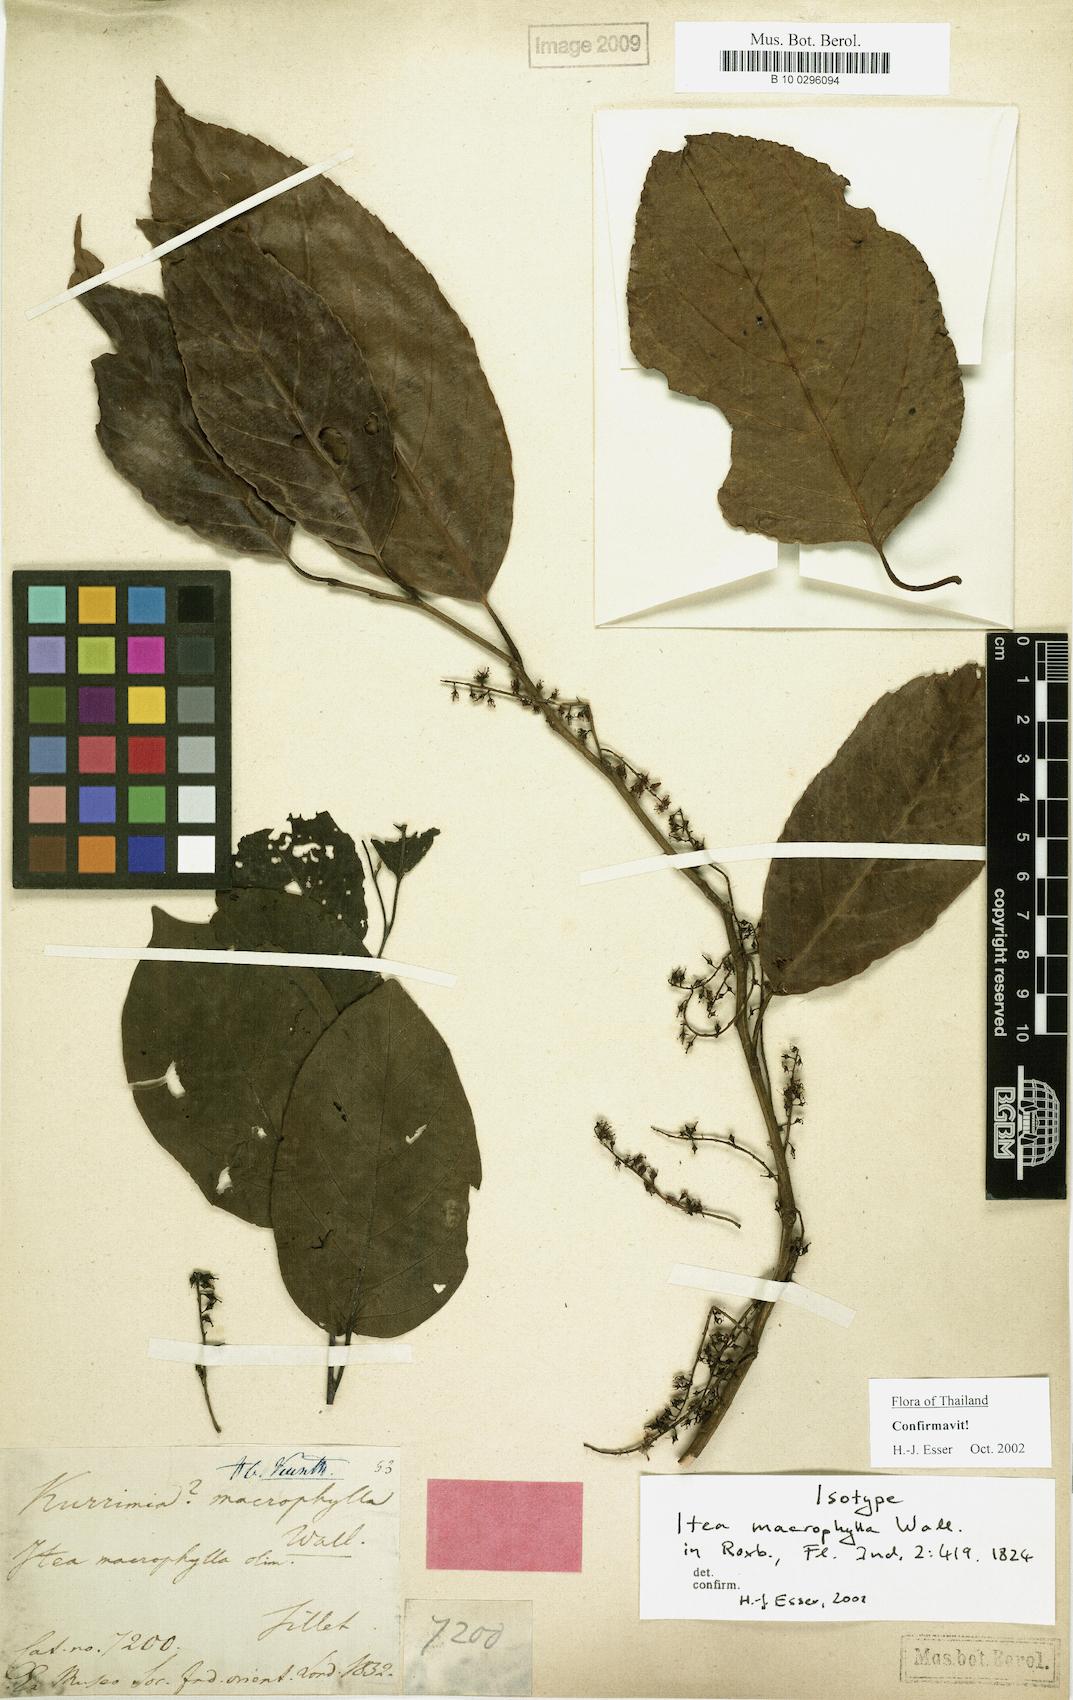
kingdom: Plantae
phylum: Tracheophyta
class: Magnoliopsida
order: Saxifragales
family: Iteaceae
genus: Itea
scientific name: Itea macrophylla
